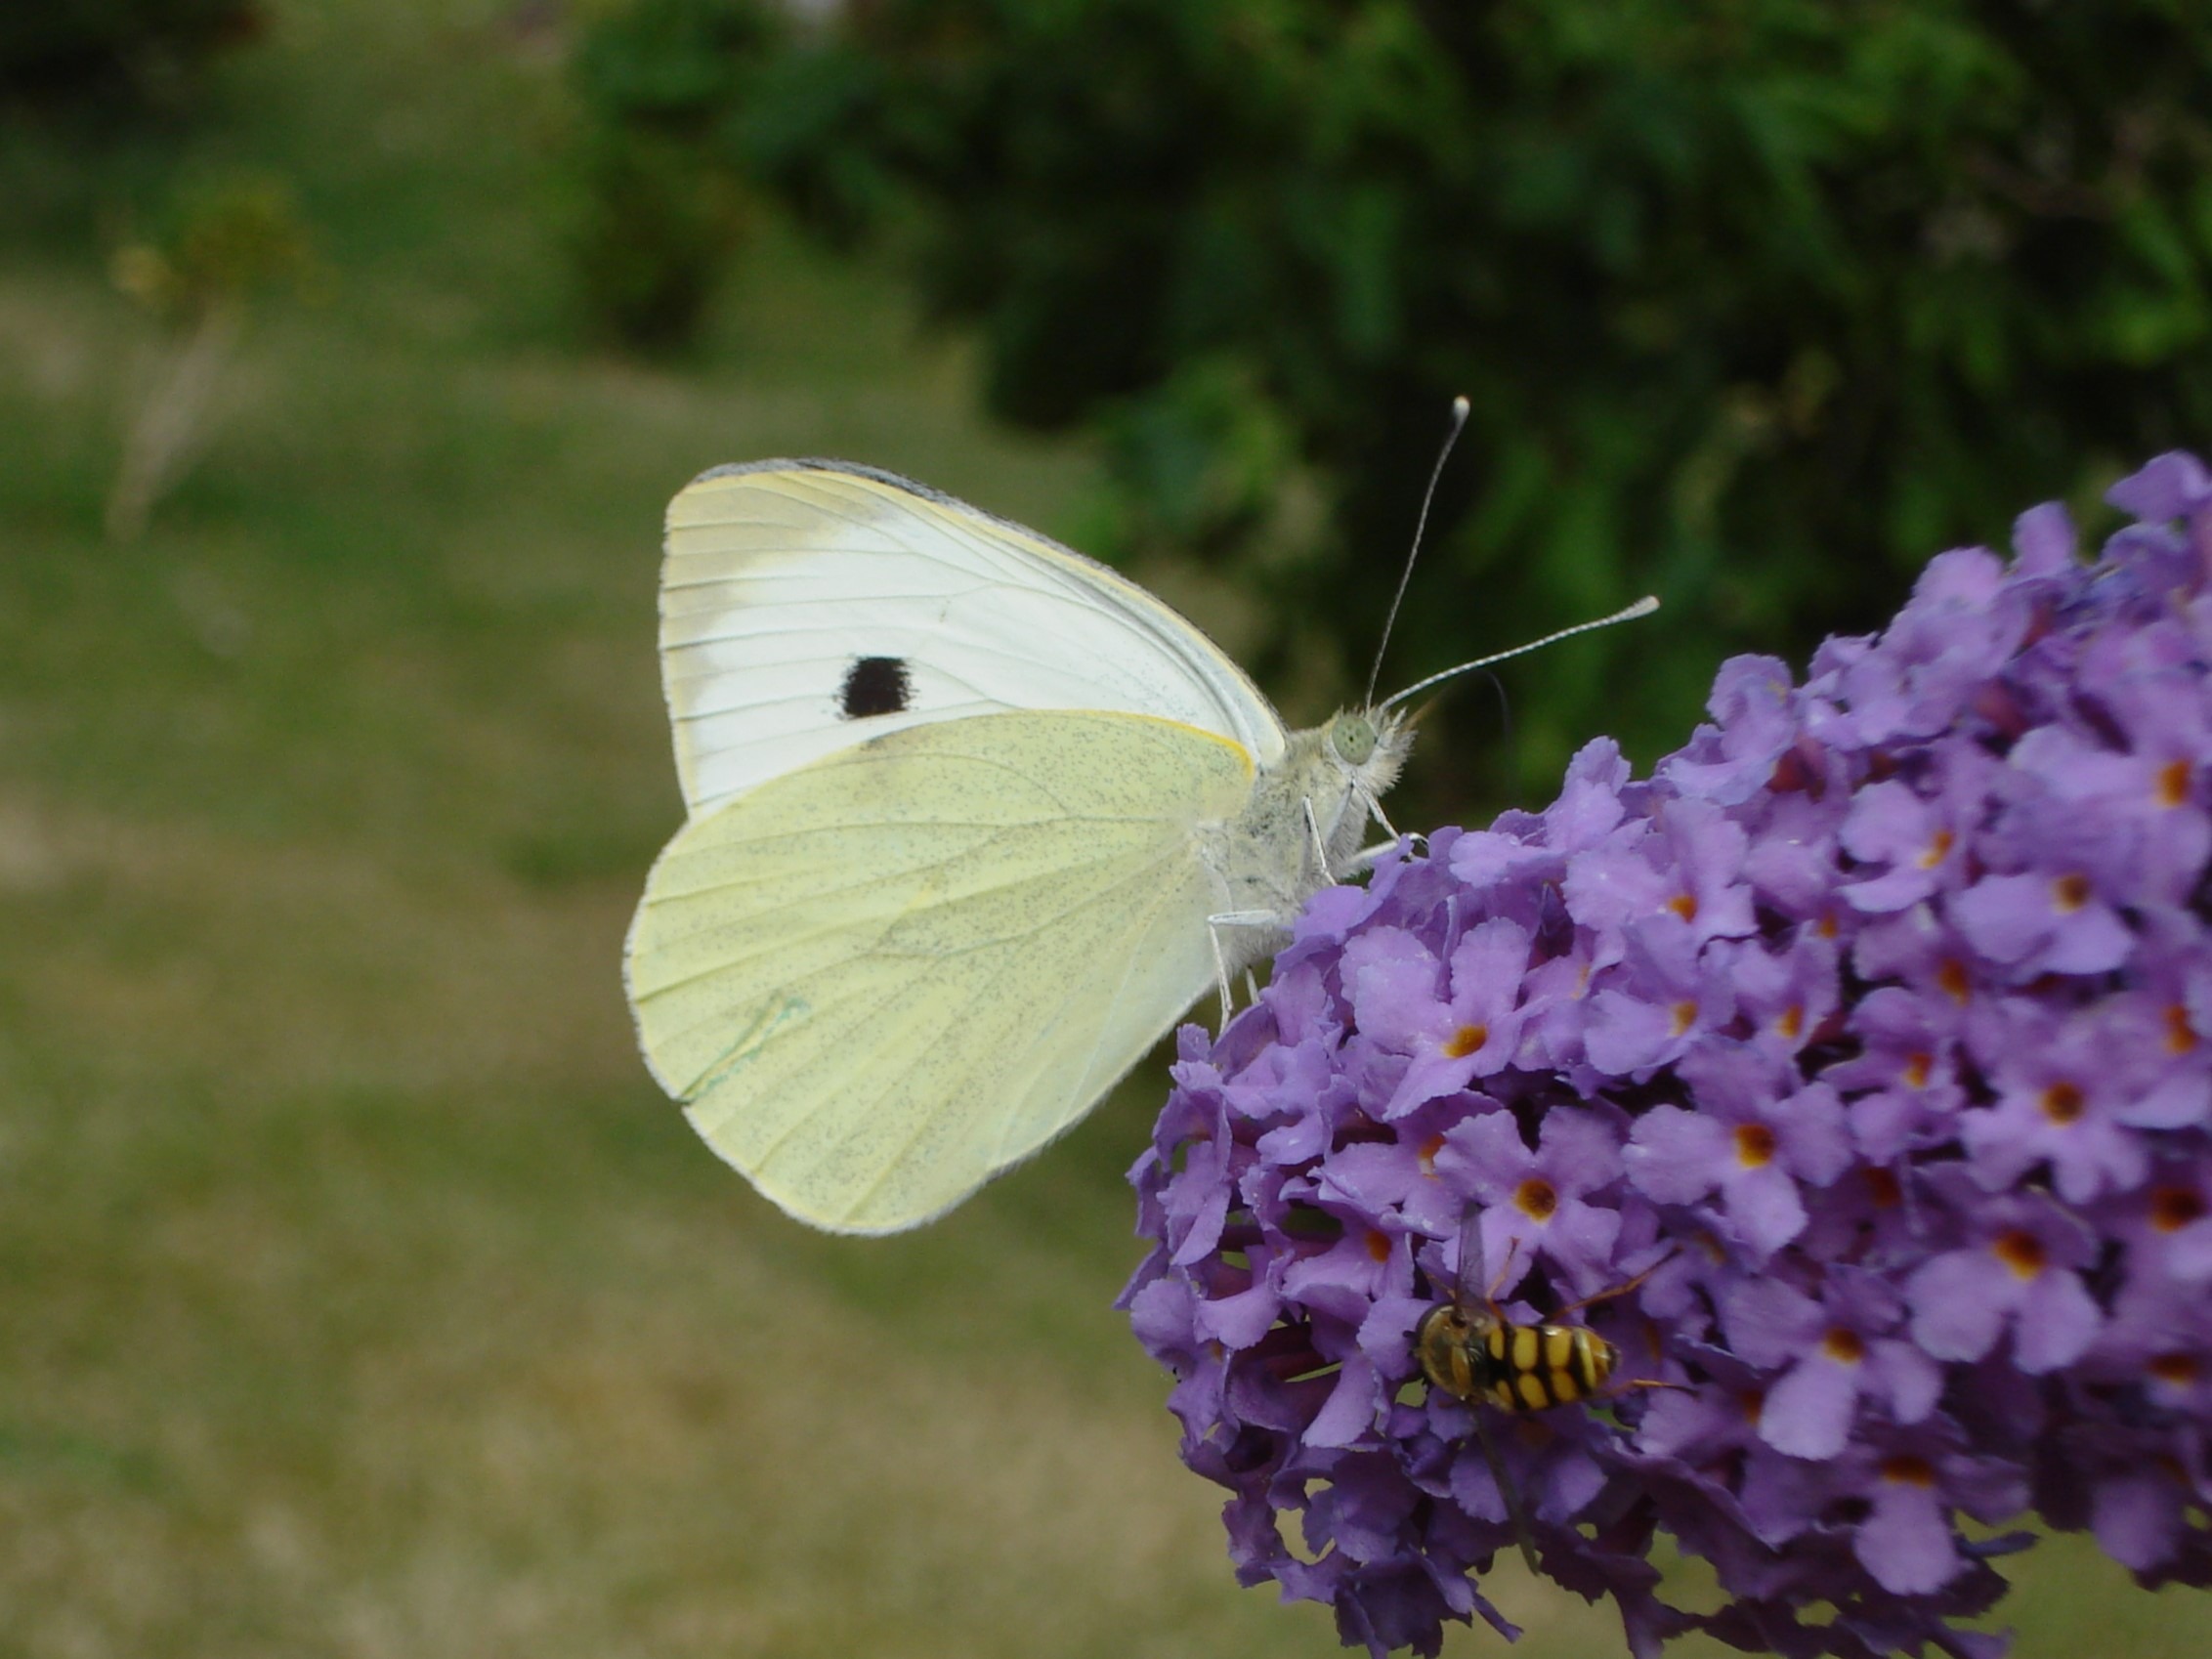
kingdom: Animalia
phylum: Arthropoda
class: Insecta
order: Lepidoptera
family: Pieridae
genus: Pieris
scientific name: Pieris brassicae
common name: Stor kålsommerfugl
